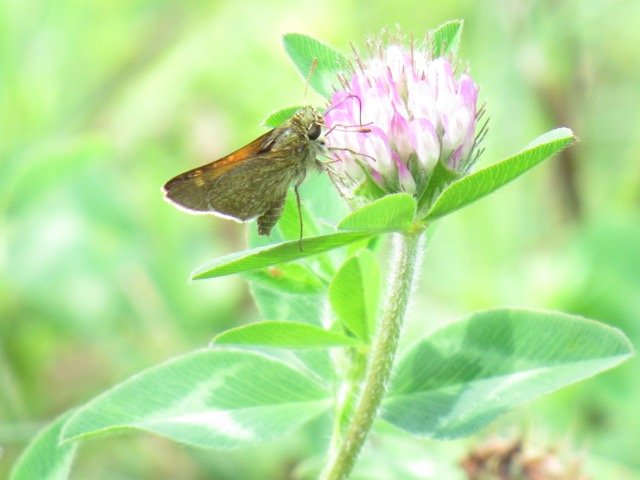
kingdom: Animalia
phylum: Arthropoda
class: Insecta
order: Lepidoptera
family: Hesperiidae
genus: Polites
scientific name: Polites themistocles
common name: Tawny-edged Skipper
